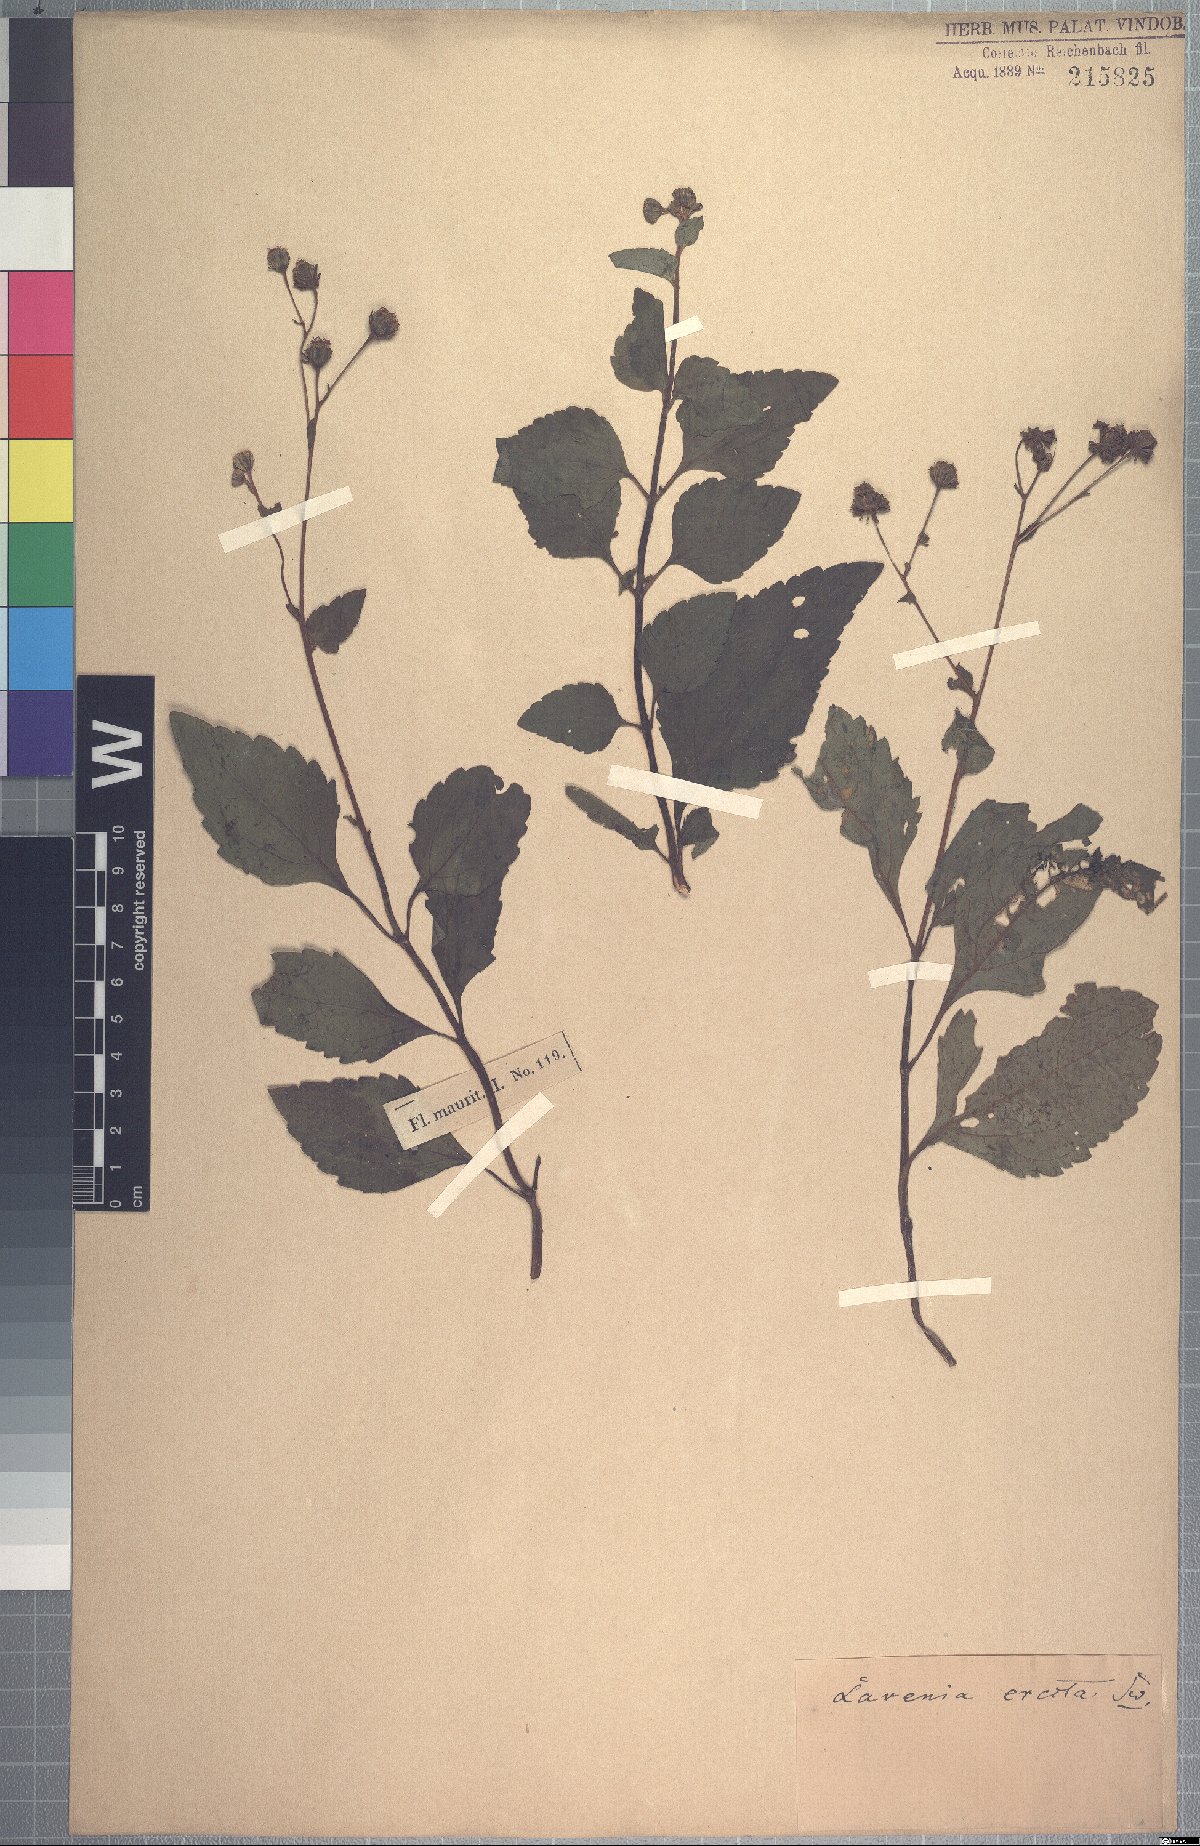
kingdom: Plantae
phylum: Tracheophyta
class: Magnoliopsida
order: Asterales
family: Asteraceae
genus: Adenostemma
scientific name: Adenostemma mauritianum
